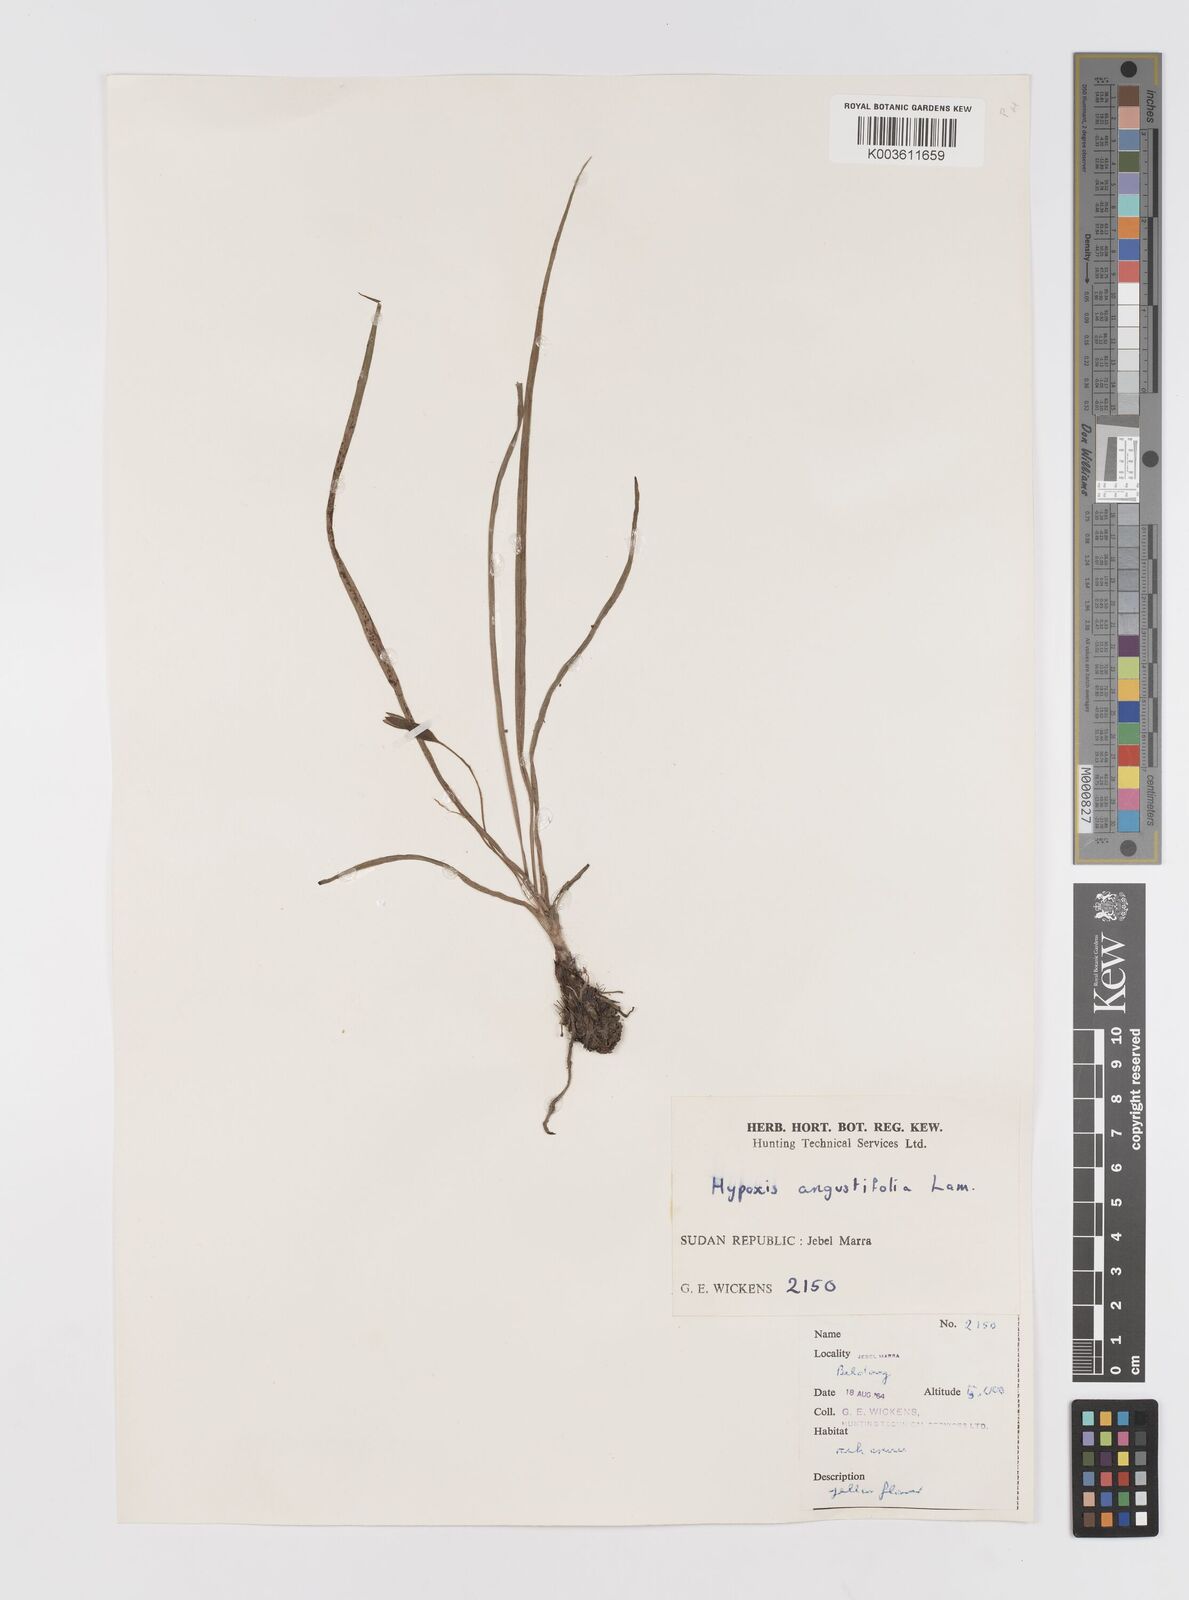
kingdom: Plantae
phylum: Tracheophyta
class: Liliopsida
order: Asparagales
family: Hypoxidaceae
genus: Hypoxis
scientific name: Hypoxis angustifolia
